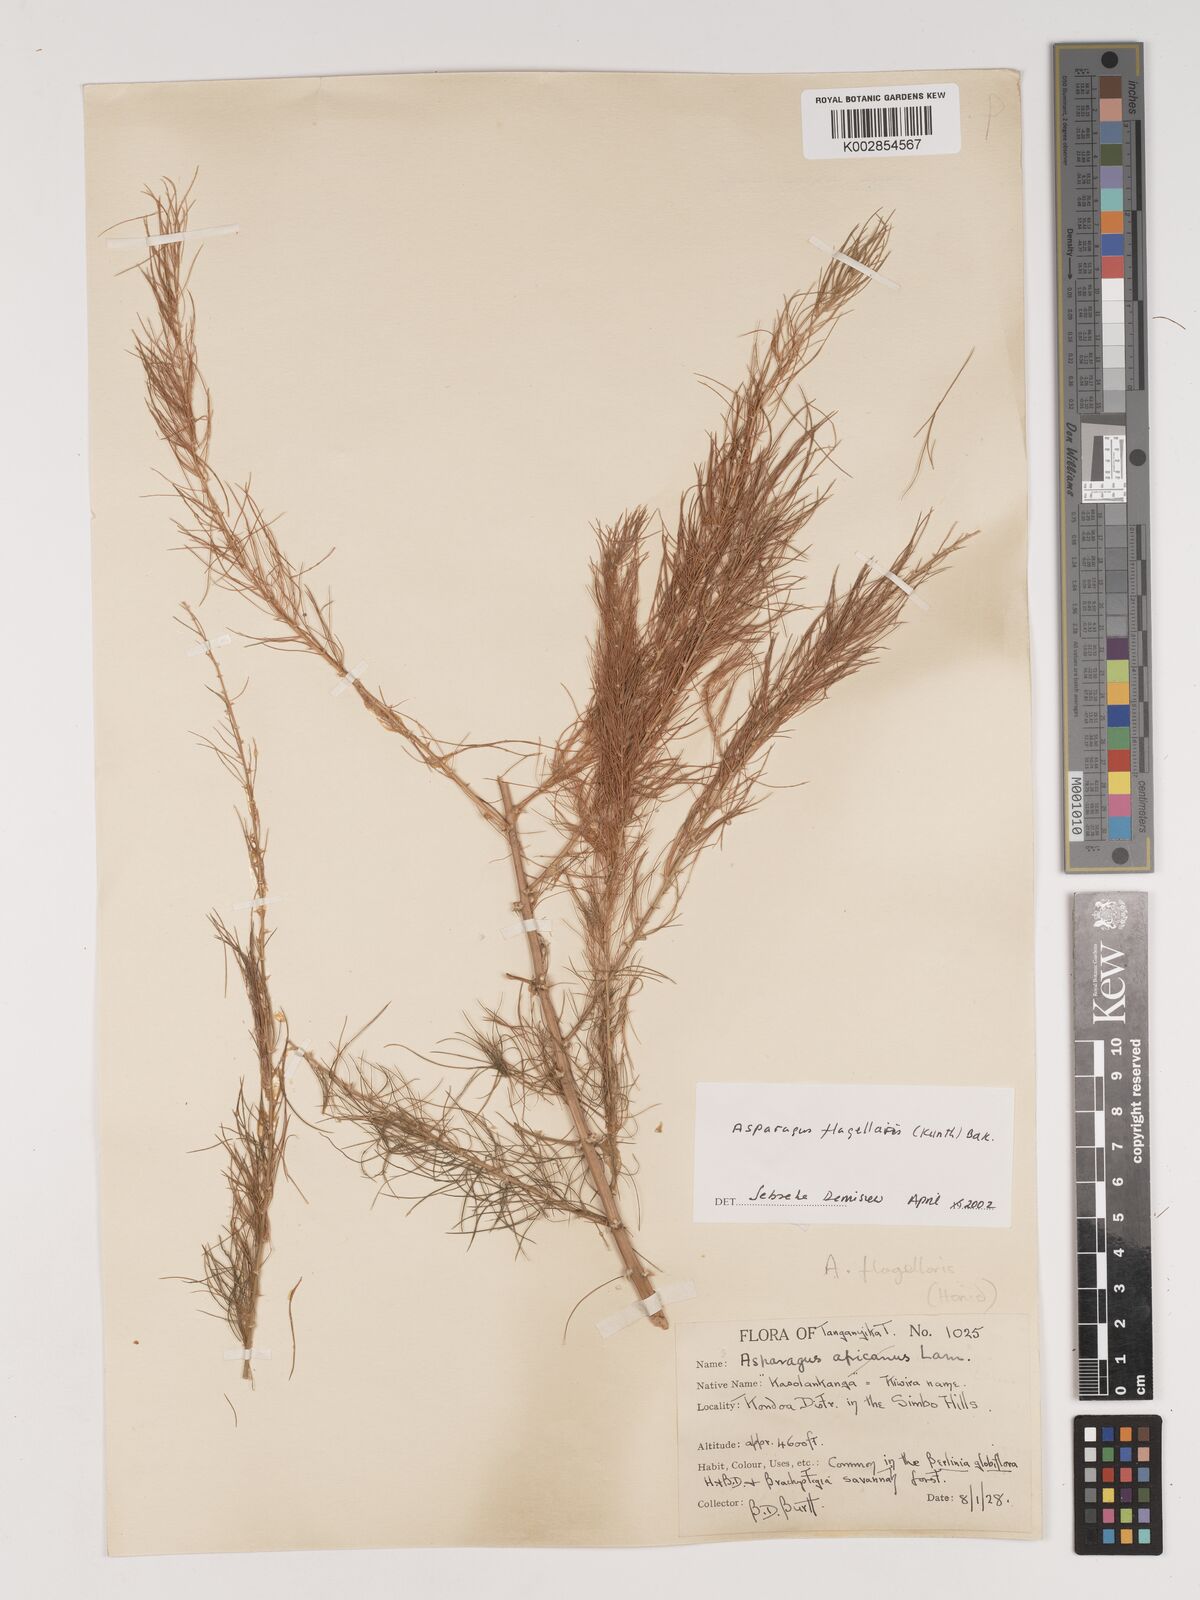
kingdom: Plantae
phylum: Tracheophyta
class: Liliopsida
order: Asparagales
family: Asparagaceae
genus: Asparagus
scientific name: Asparagus flagellaris
